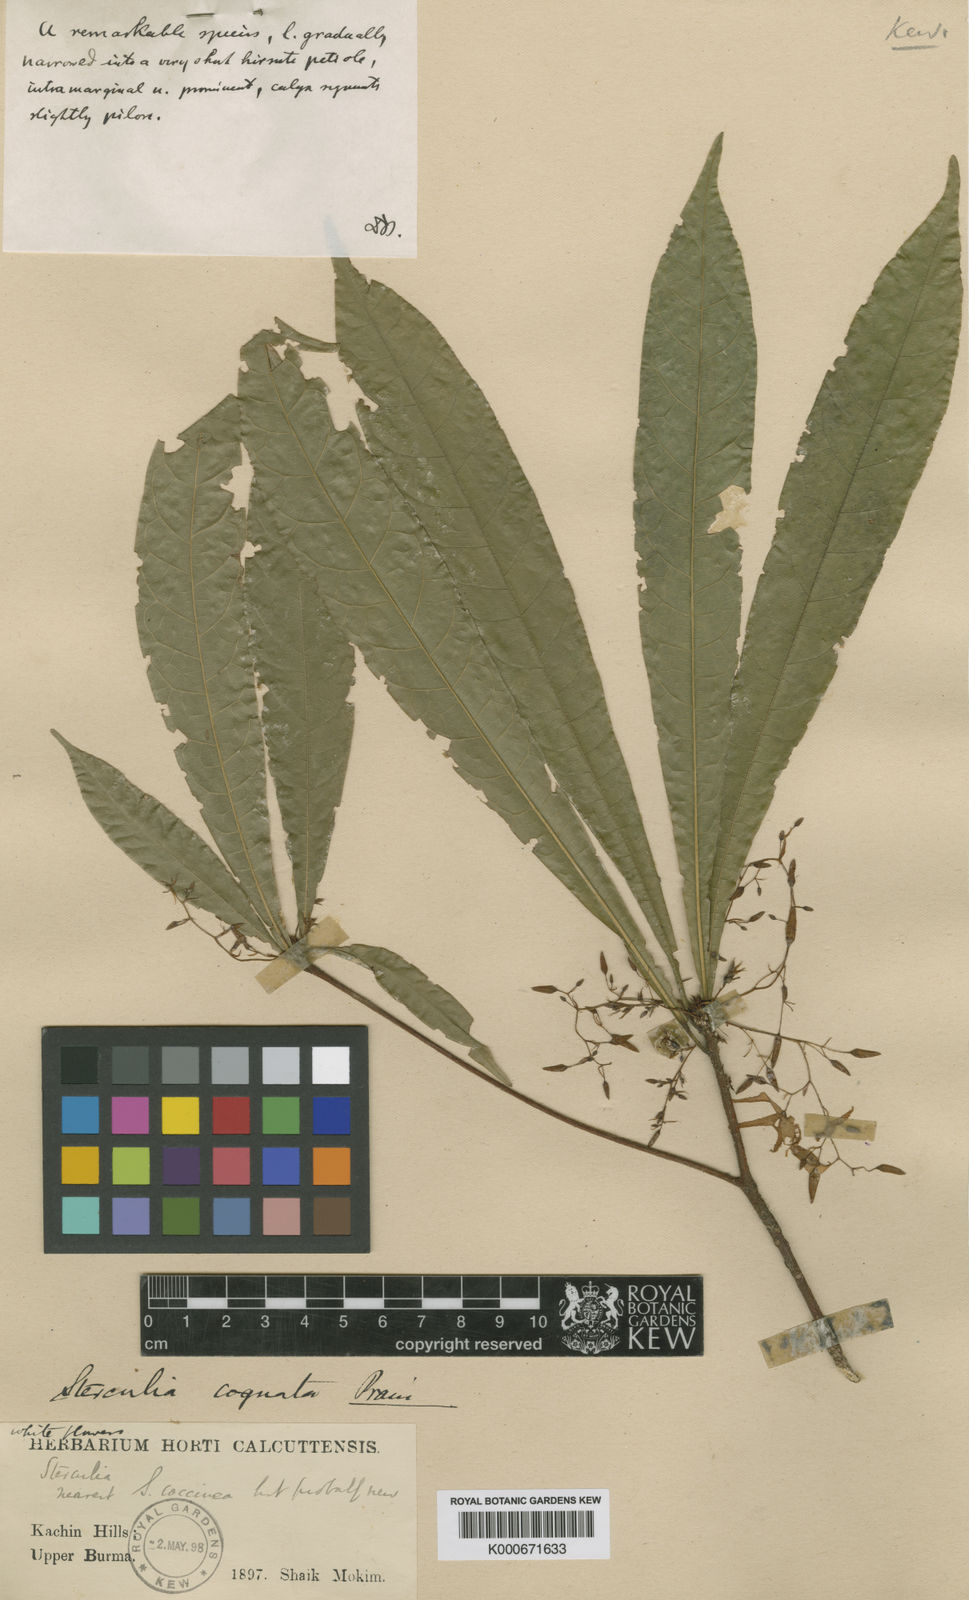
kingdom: Plantae
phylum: Tracheophyta
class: Magnoliopsida
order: Malvales
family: Malvaceae
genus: Sterculia
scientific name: Sterculia cognata
